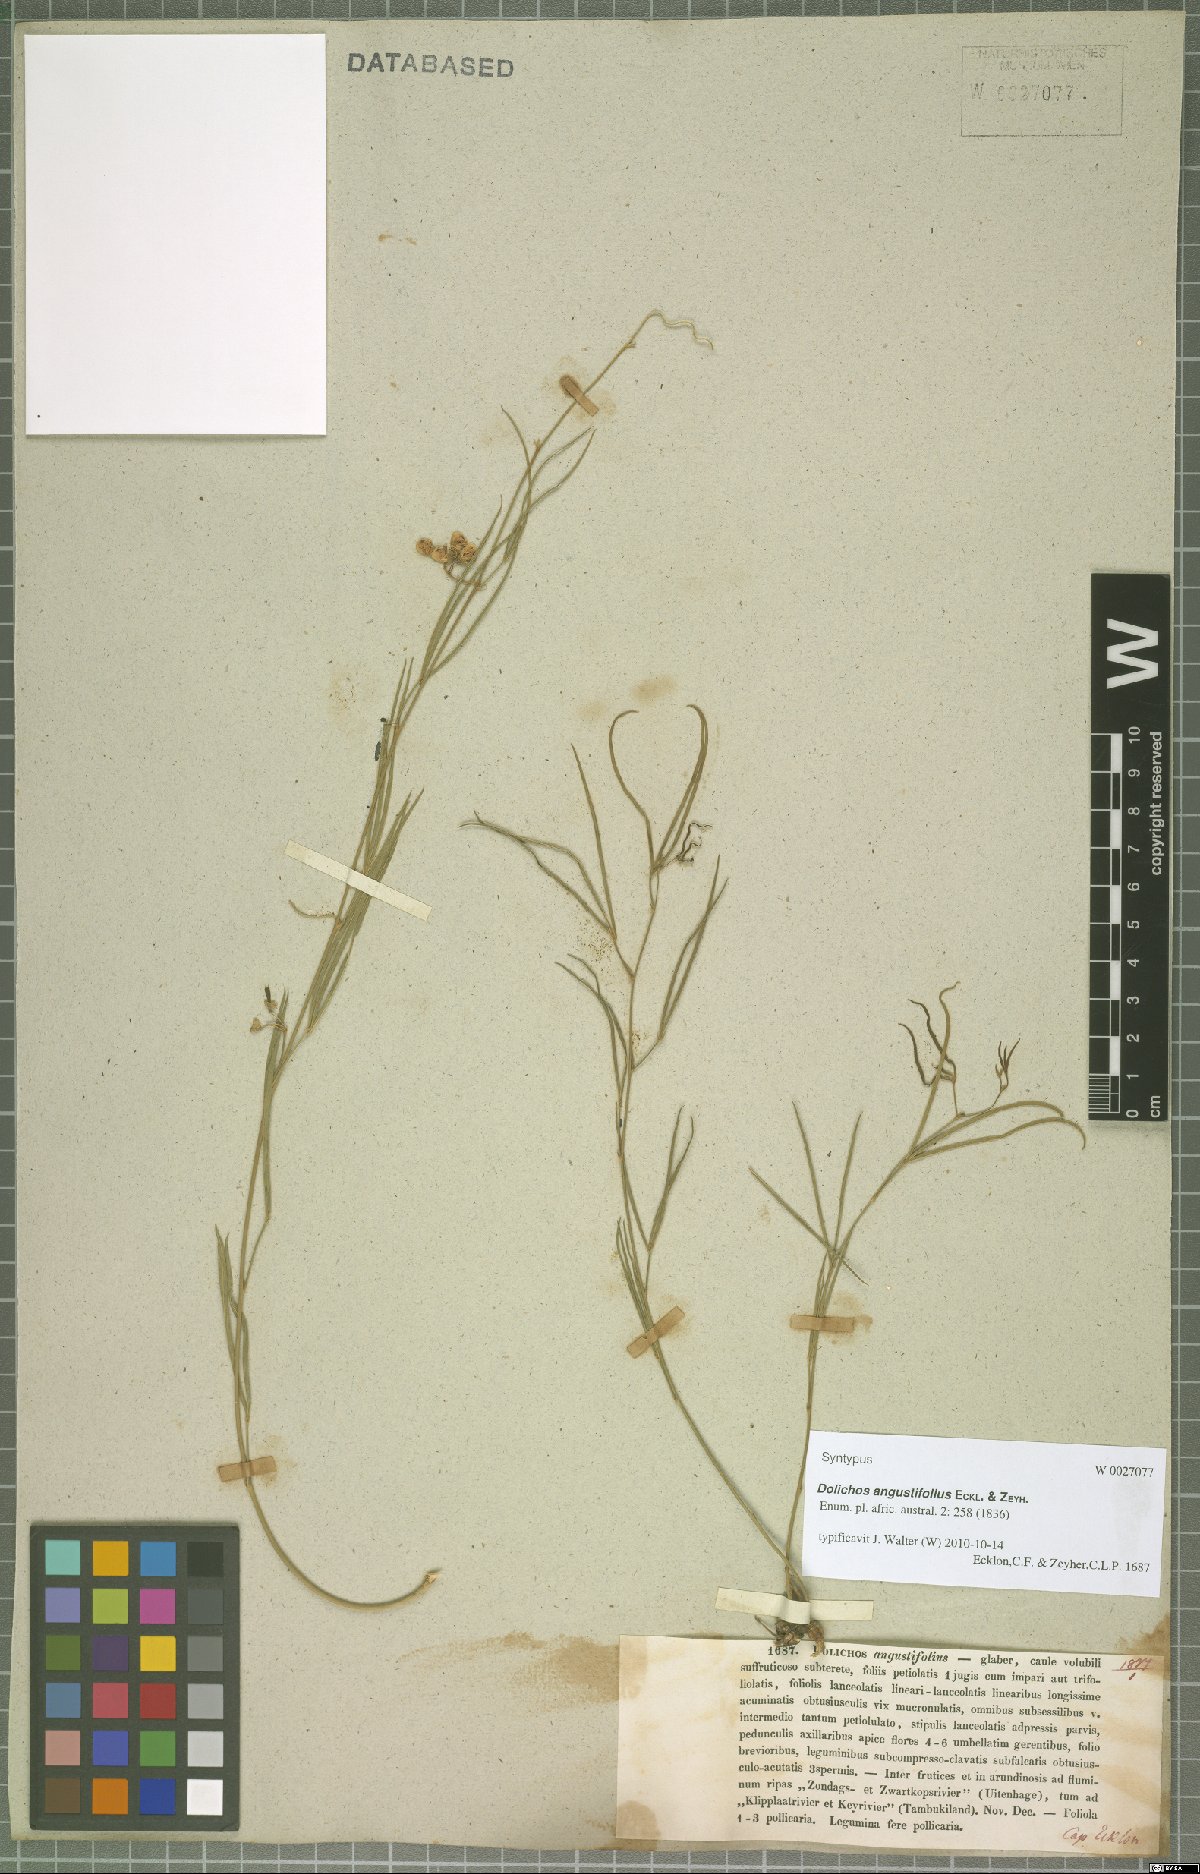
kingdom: Plantae
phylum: Tracheophyta
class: Magnoliopsida
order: Fabales
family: Fabaceae
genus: Dolichos
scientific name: Dolichos angustifolius
